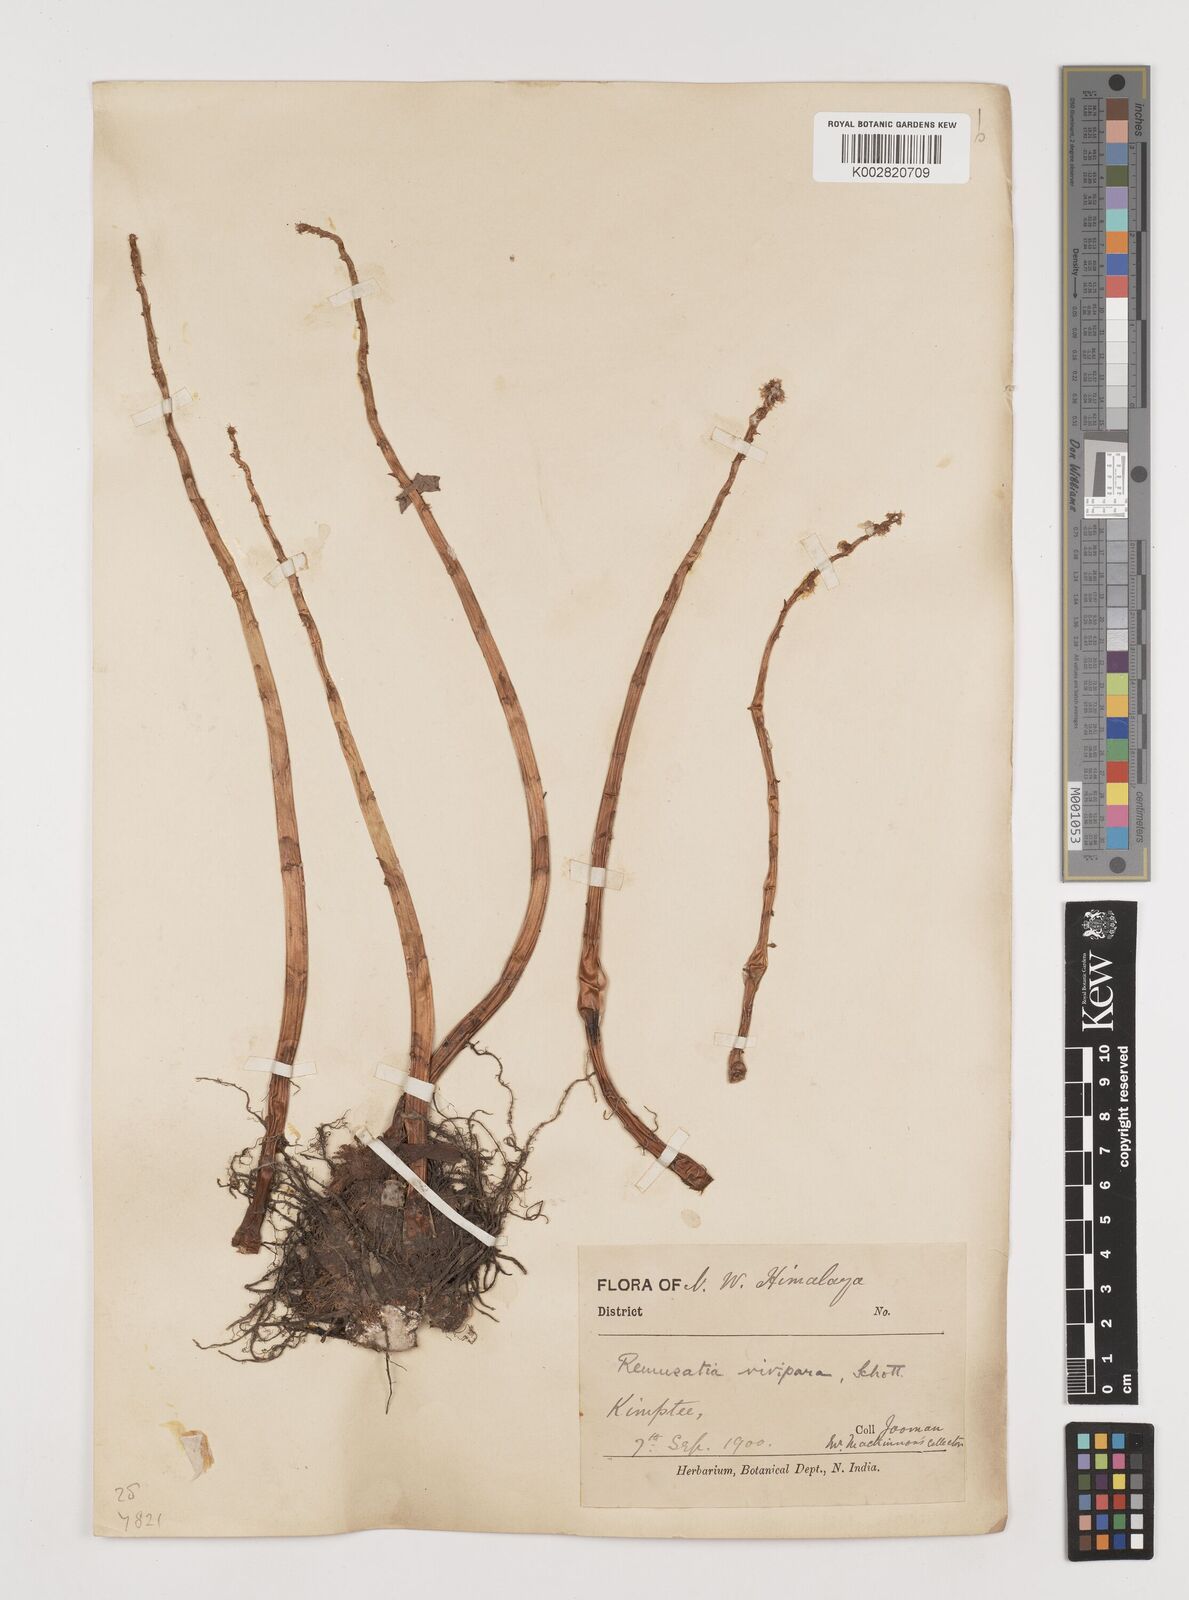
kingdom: Plantae
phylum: Tracheophyta
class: Liliopsida
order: Alismatales
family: Araceae
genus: Remusatia
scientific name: Remusatia vivipara
